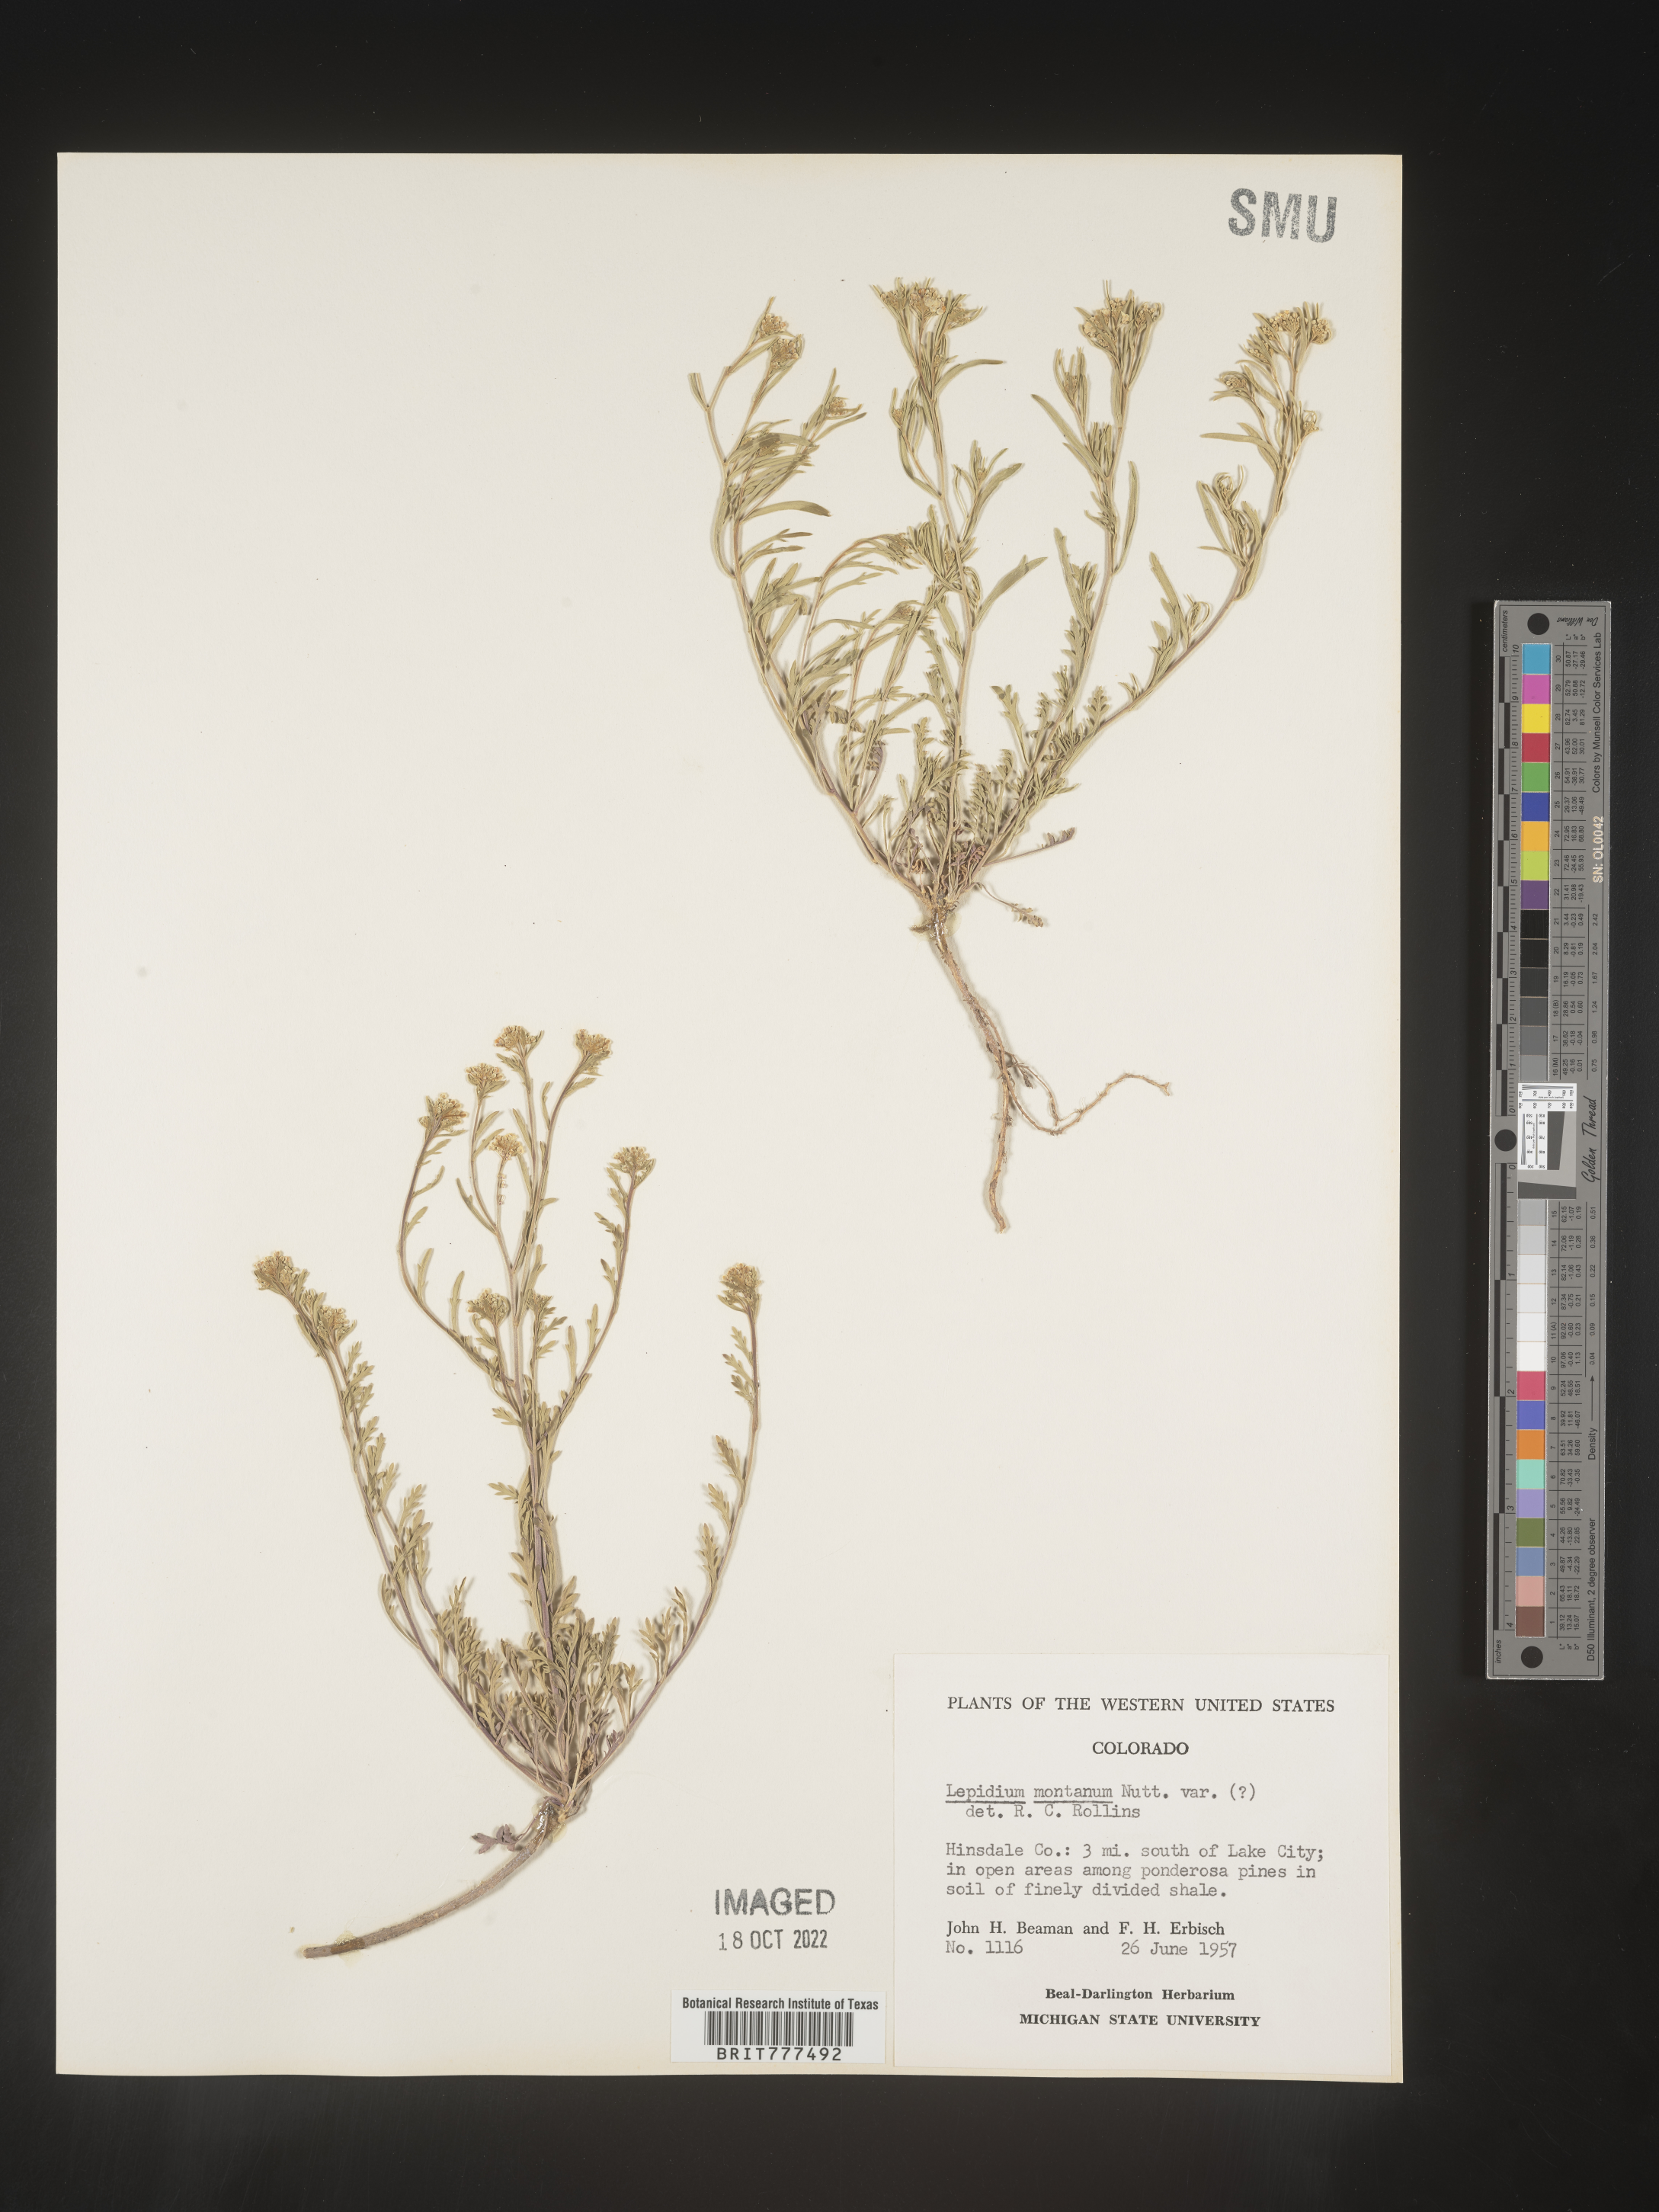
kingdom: Plantae
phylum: Tracheophyta
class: Magnoliopsida
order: Brassicales
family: Brassicaceae
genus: Lepidium
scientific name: Lepidium montanum
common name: Mountain pepperplant
